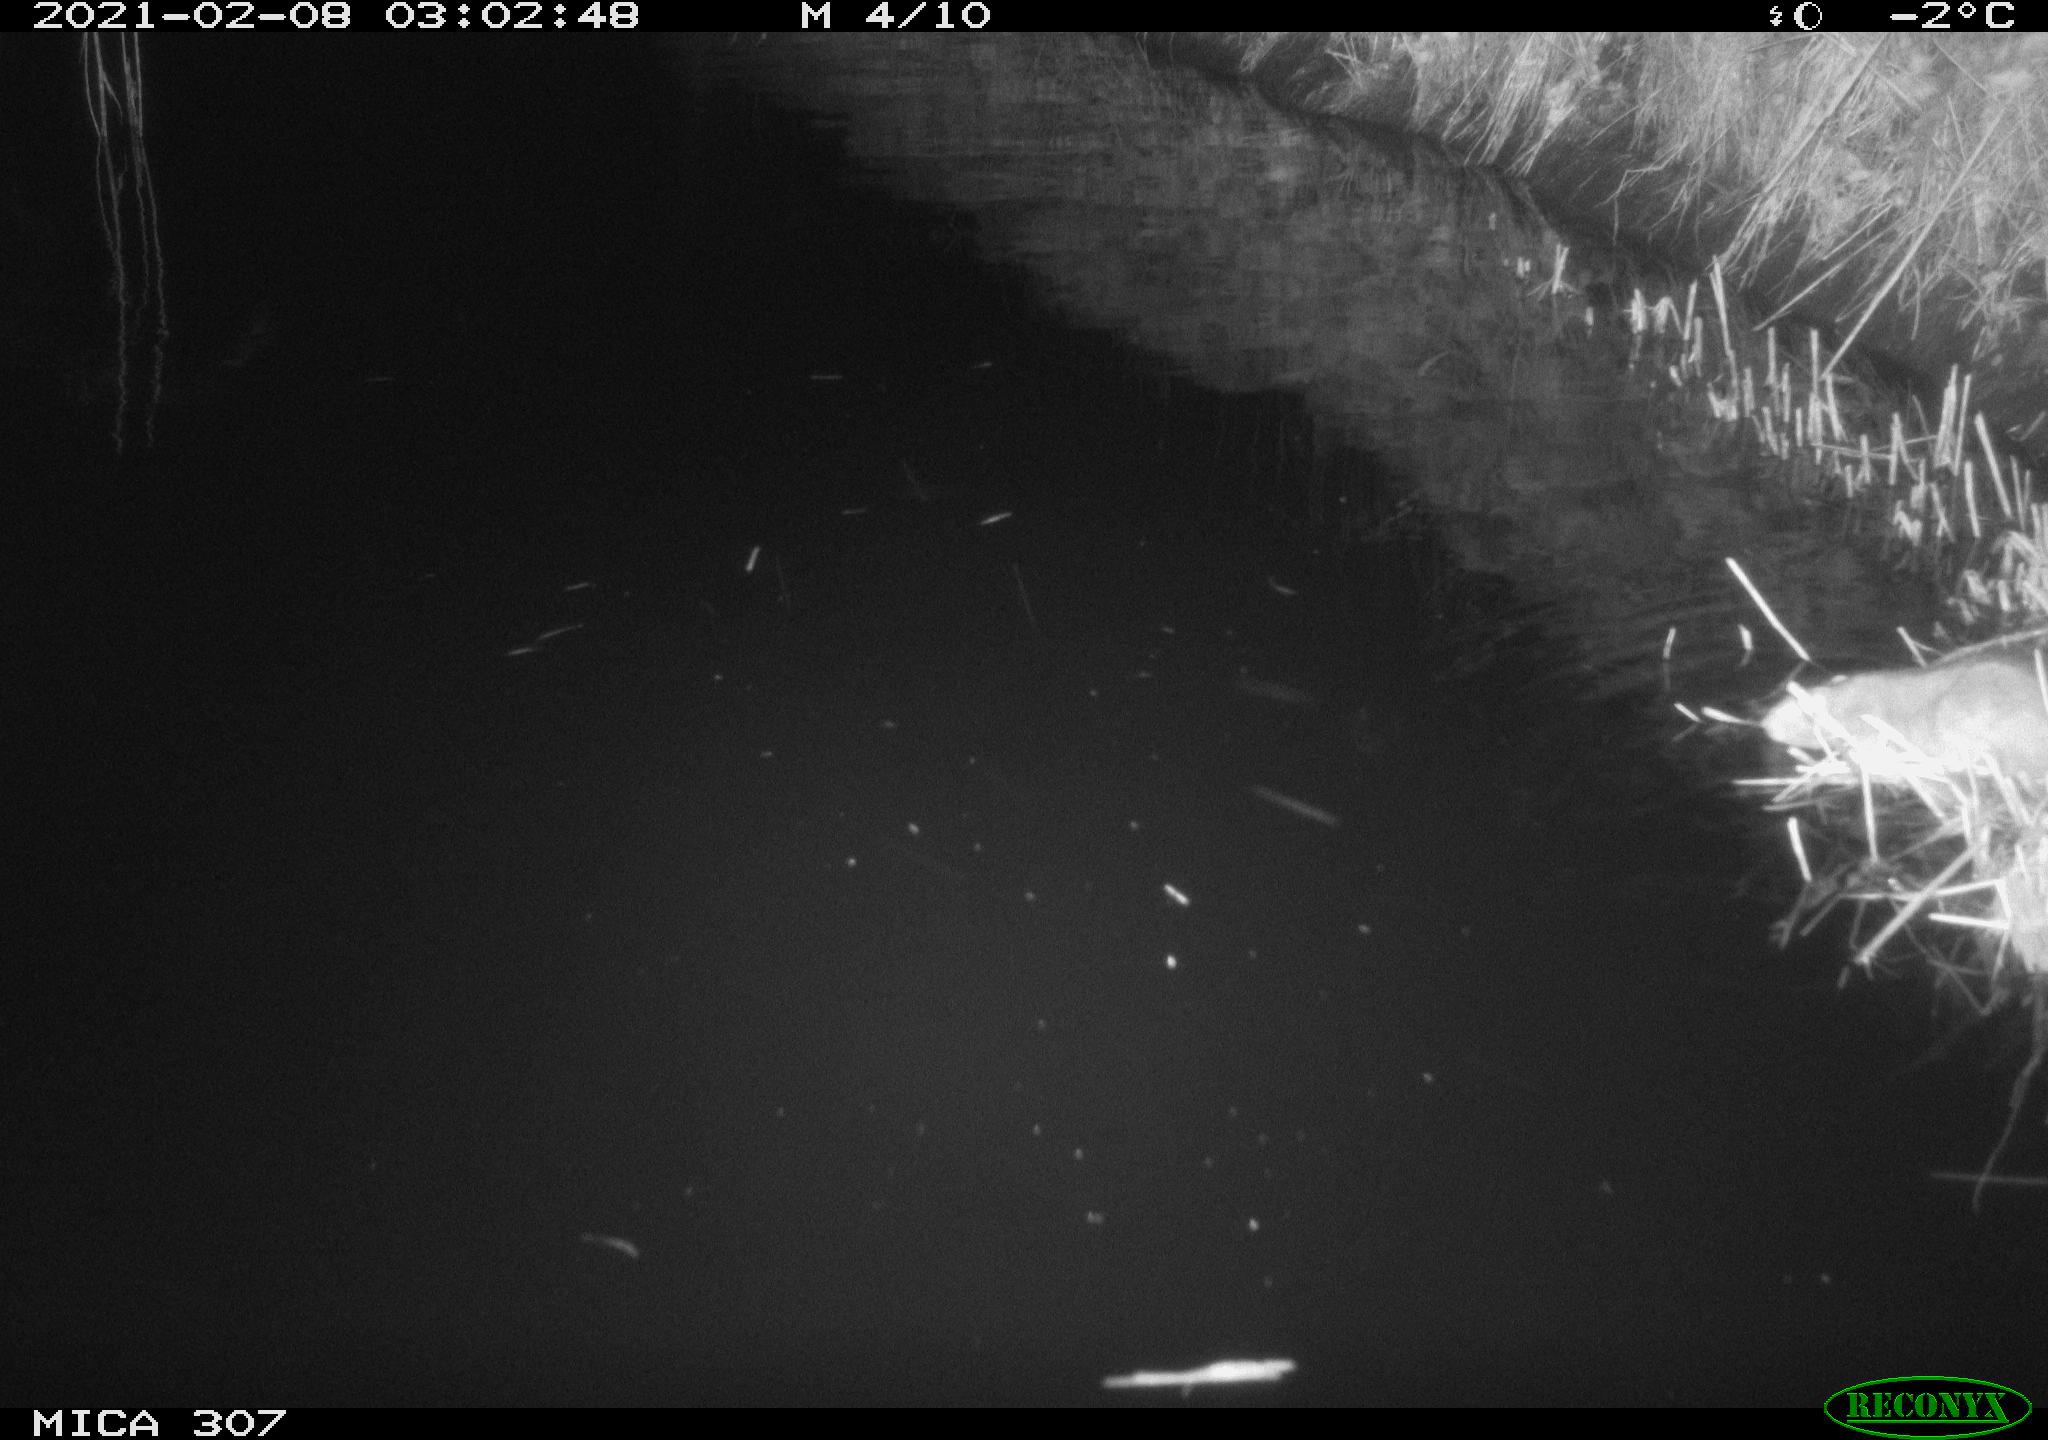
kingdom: Animalia
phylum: Chordata
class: Mammalia
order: Rodentia
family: Muridae
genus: Rattus
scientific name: Rattus norvegicus
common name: Brown rat
